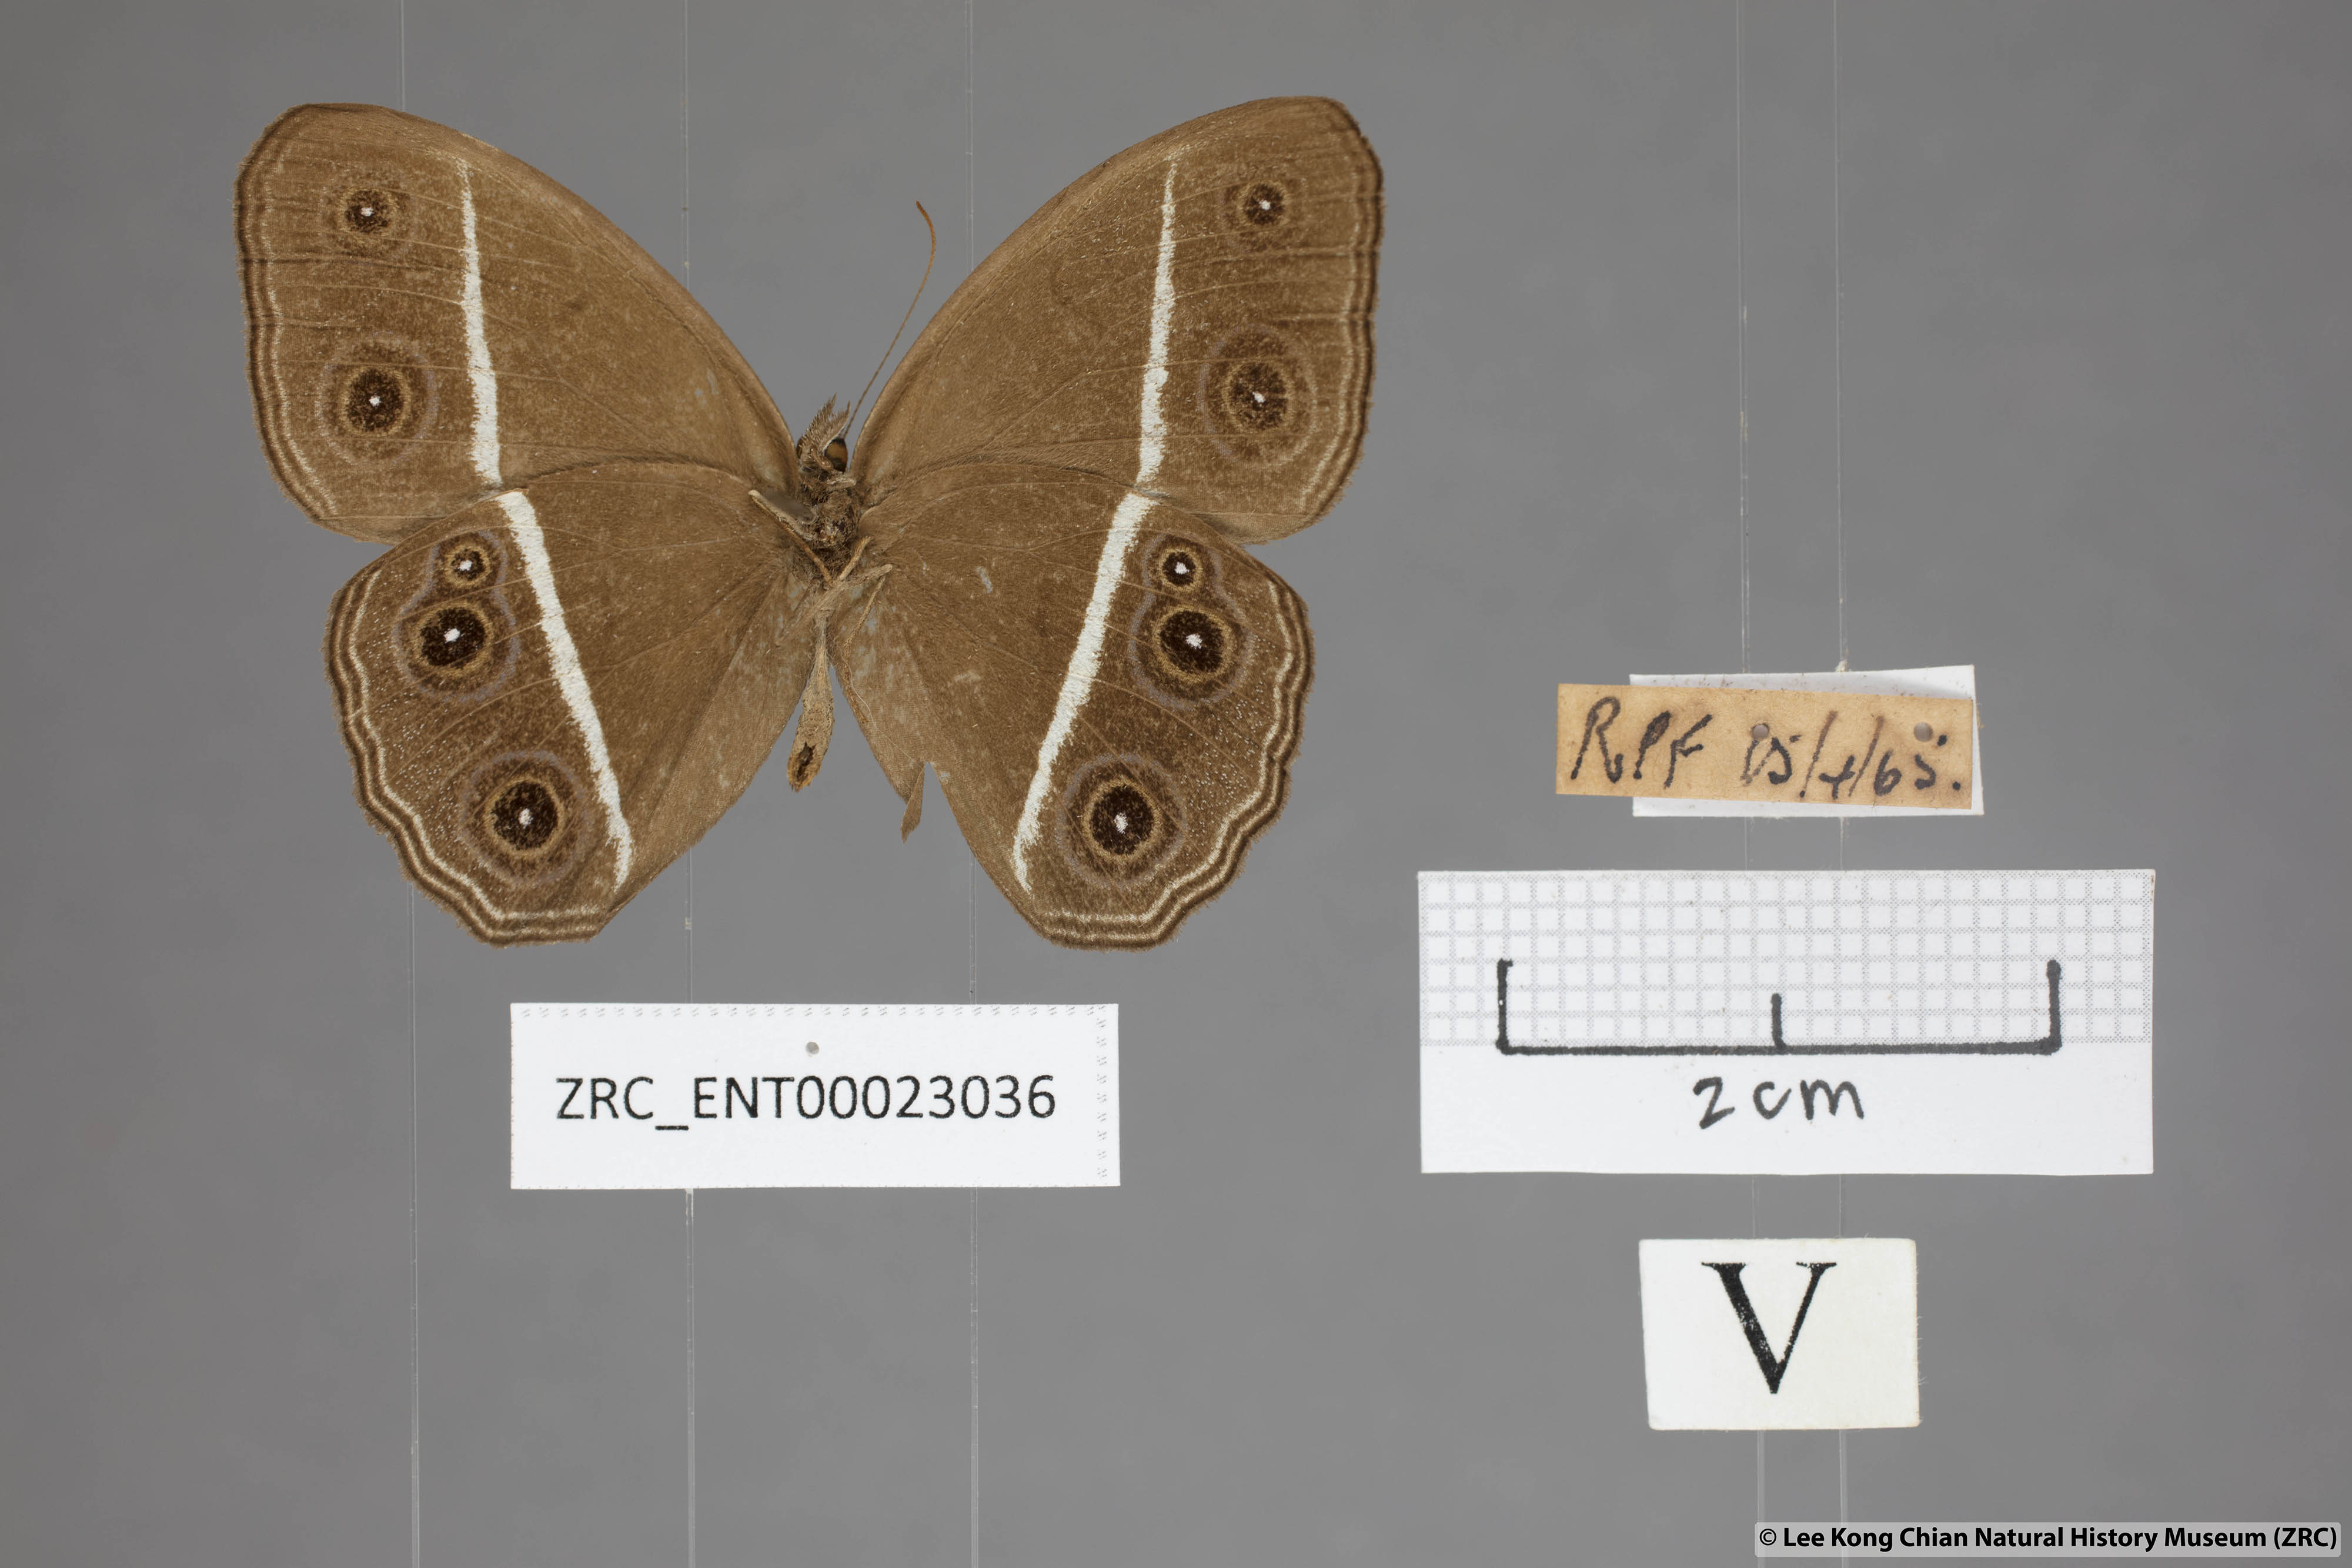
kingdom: Animalia
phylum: Arthropoda
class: Insecta
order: Lepidoptera
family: Nymphalidae
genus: Orsotriaena
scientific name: Orsotriaena medus
